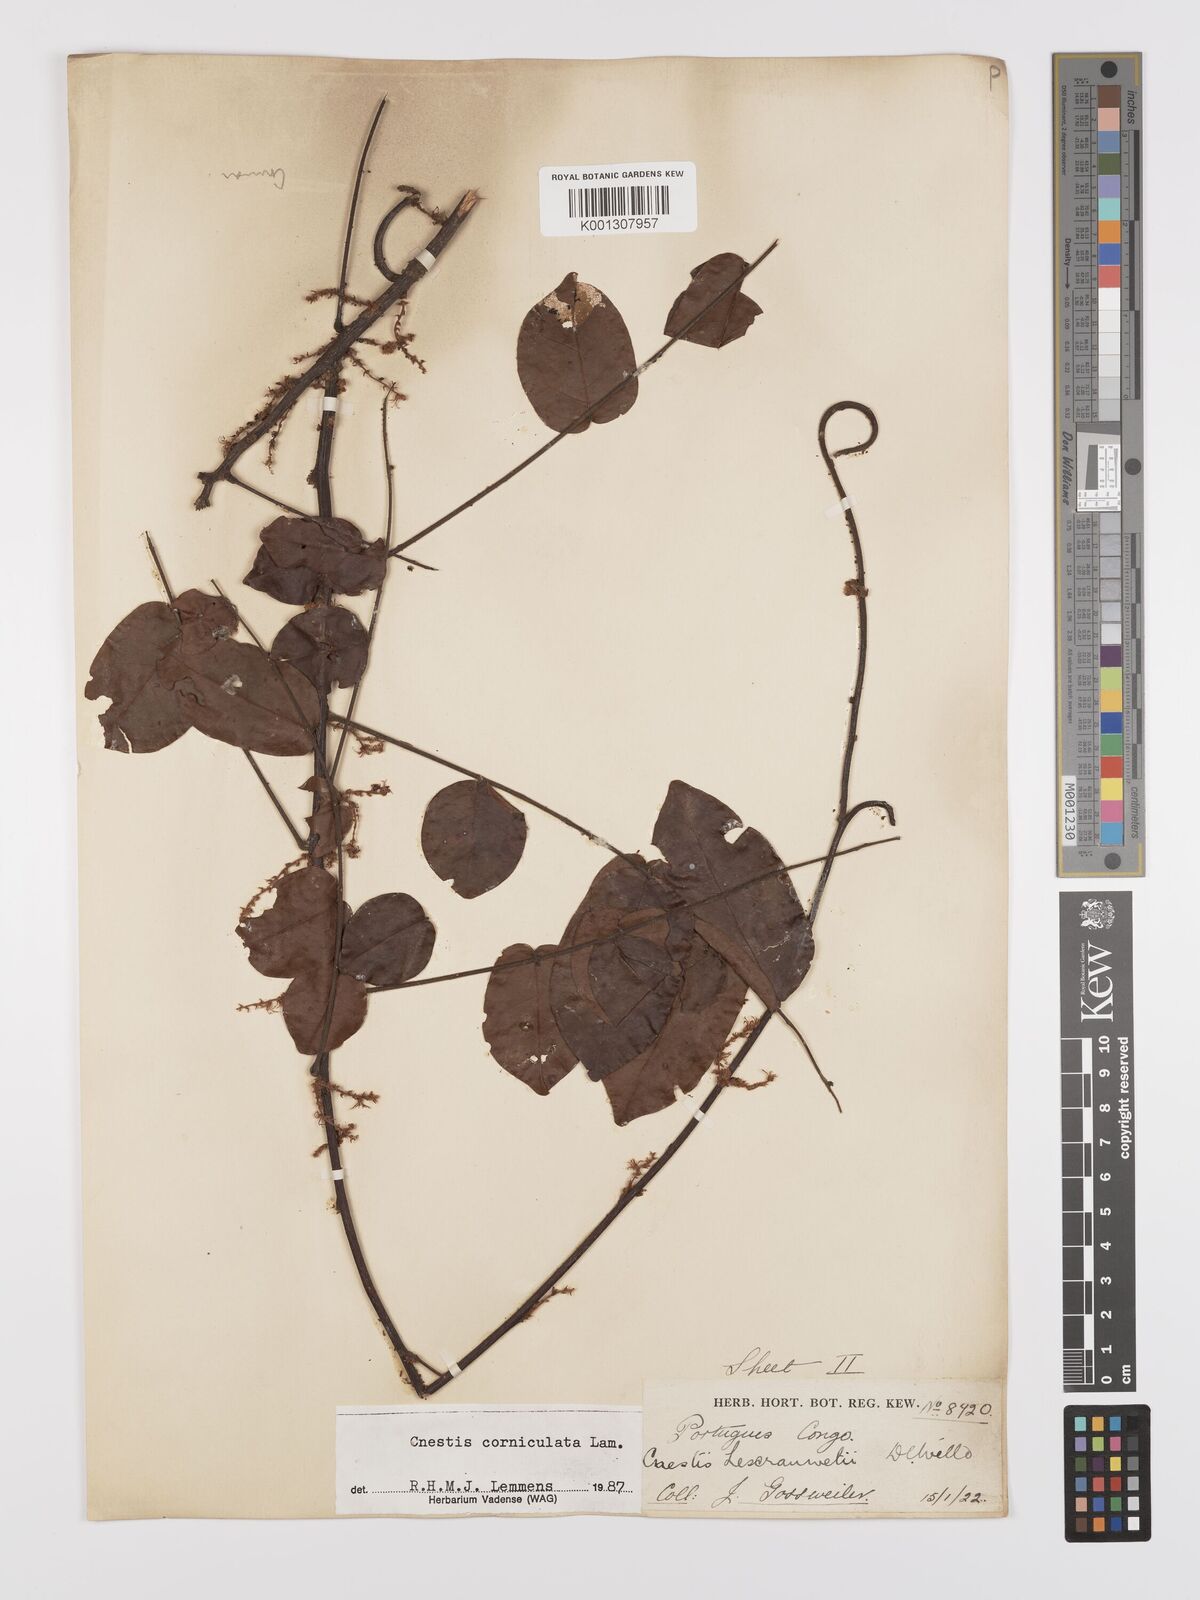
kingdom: Plantae
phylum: Tracheophyta
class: Magnoliopsida
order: Oxalidales
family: Connaraceae
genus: Cnestis
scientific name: Cnestis corniculata
